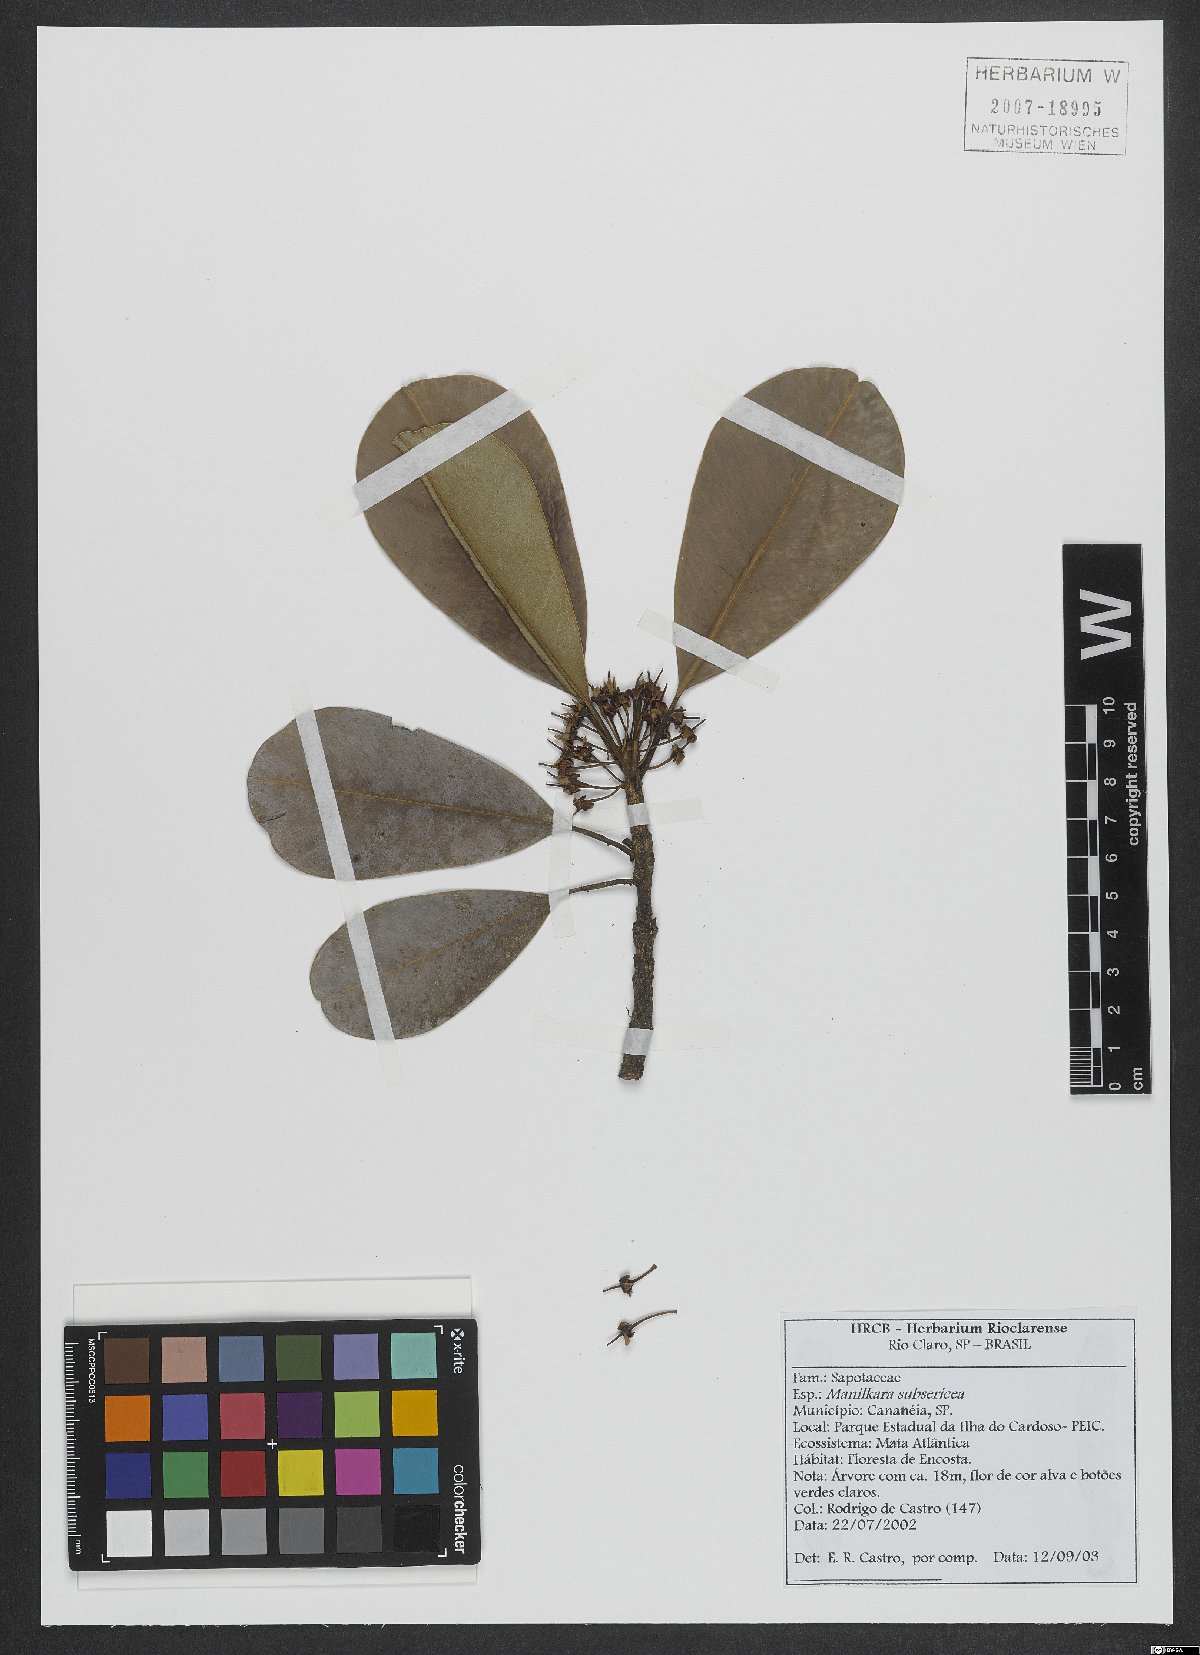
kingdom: Plantae
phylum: Tracheophyta
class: Magnoliopsida
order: Ericales
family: Sapotaceae
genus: Manilkara
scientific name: Manilkara subsericea
